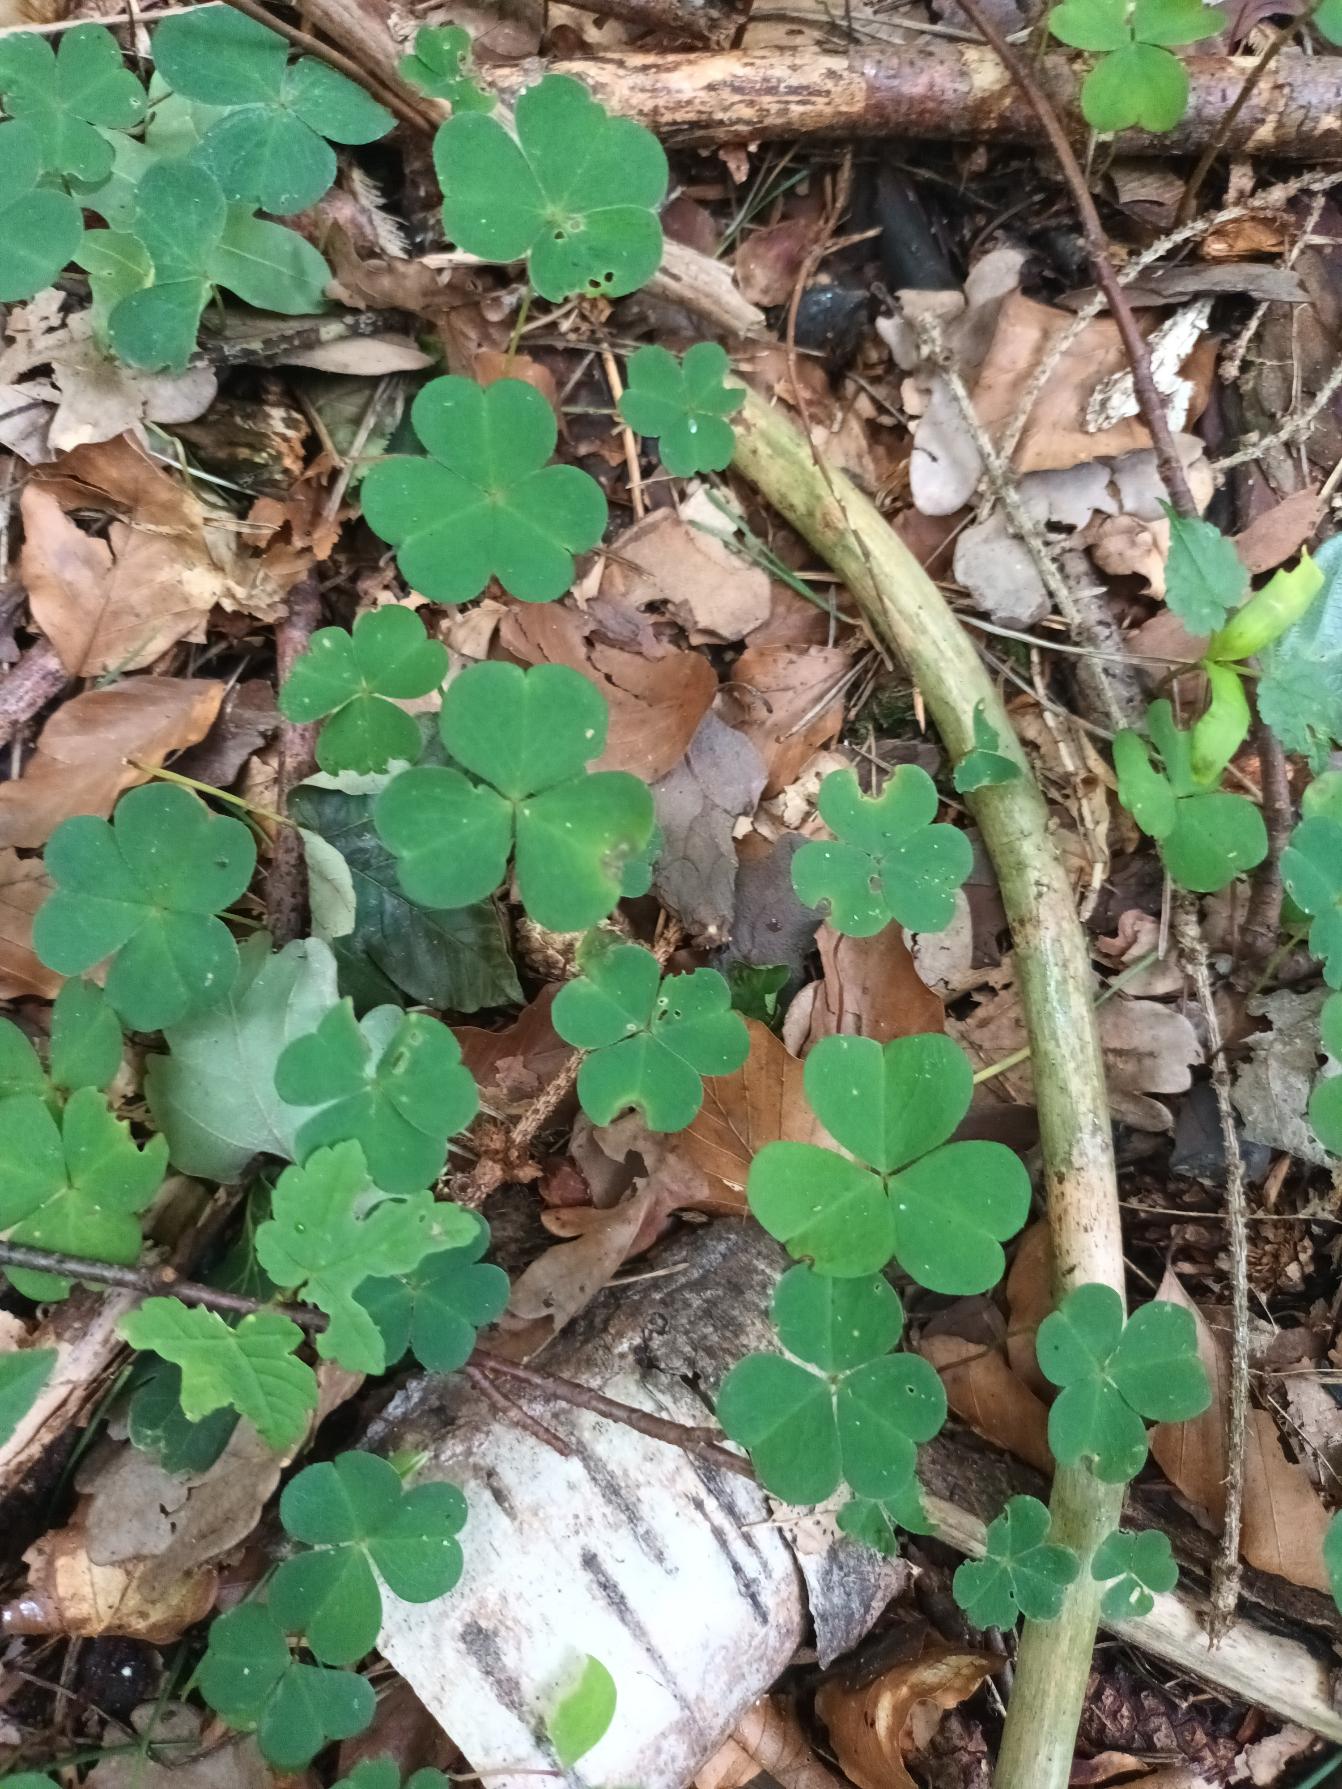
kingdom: Plantae
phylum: Tracheophyta
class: Magnoliopsida
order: Oxalidales
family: Oxalidaceae
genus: Oxalis
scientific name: Oxalis acetosella
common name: Skovsyre
